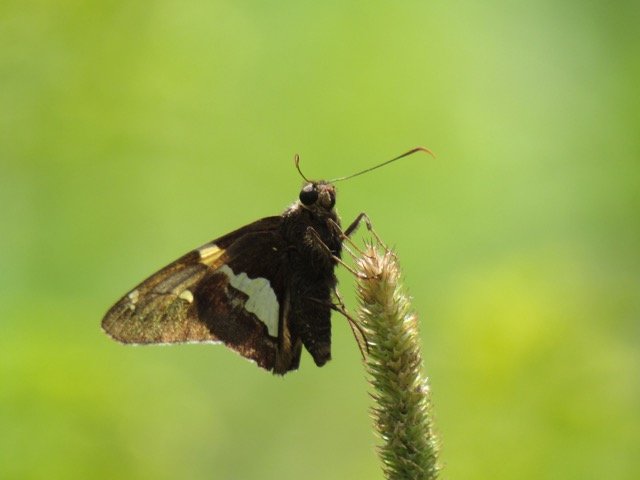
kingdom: Animalia
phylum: Arthropoda
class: Insecta
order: Lepidoptera
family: Hesperiidae
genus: Epargyreus
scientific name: Epargyreus clarus
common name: Silver-spotted Skipper
